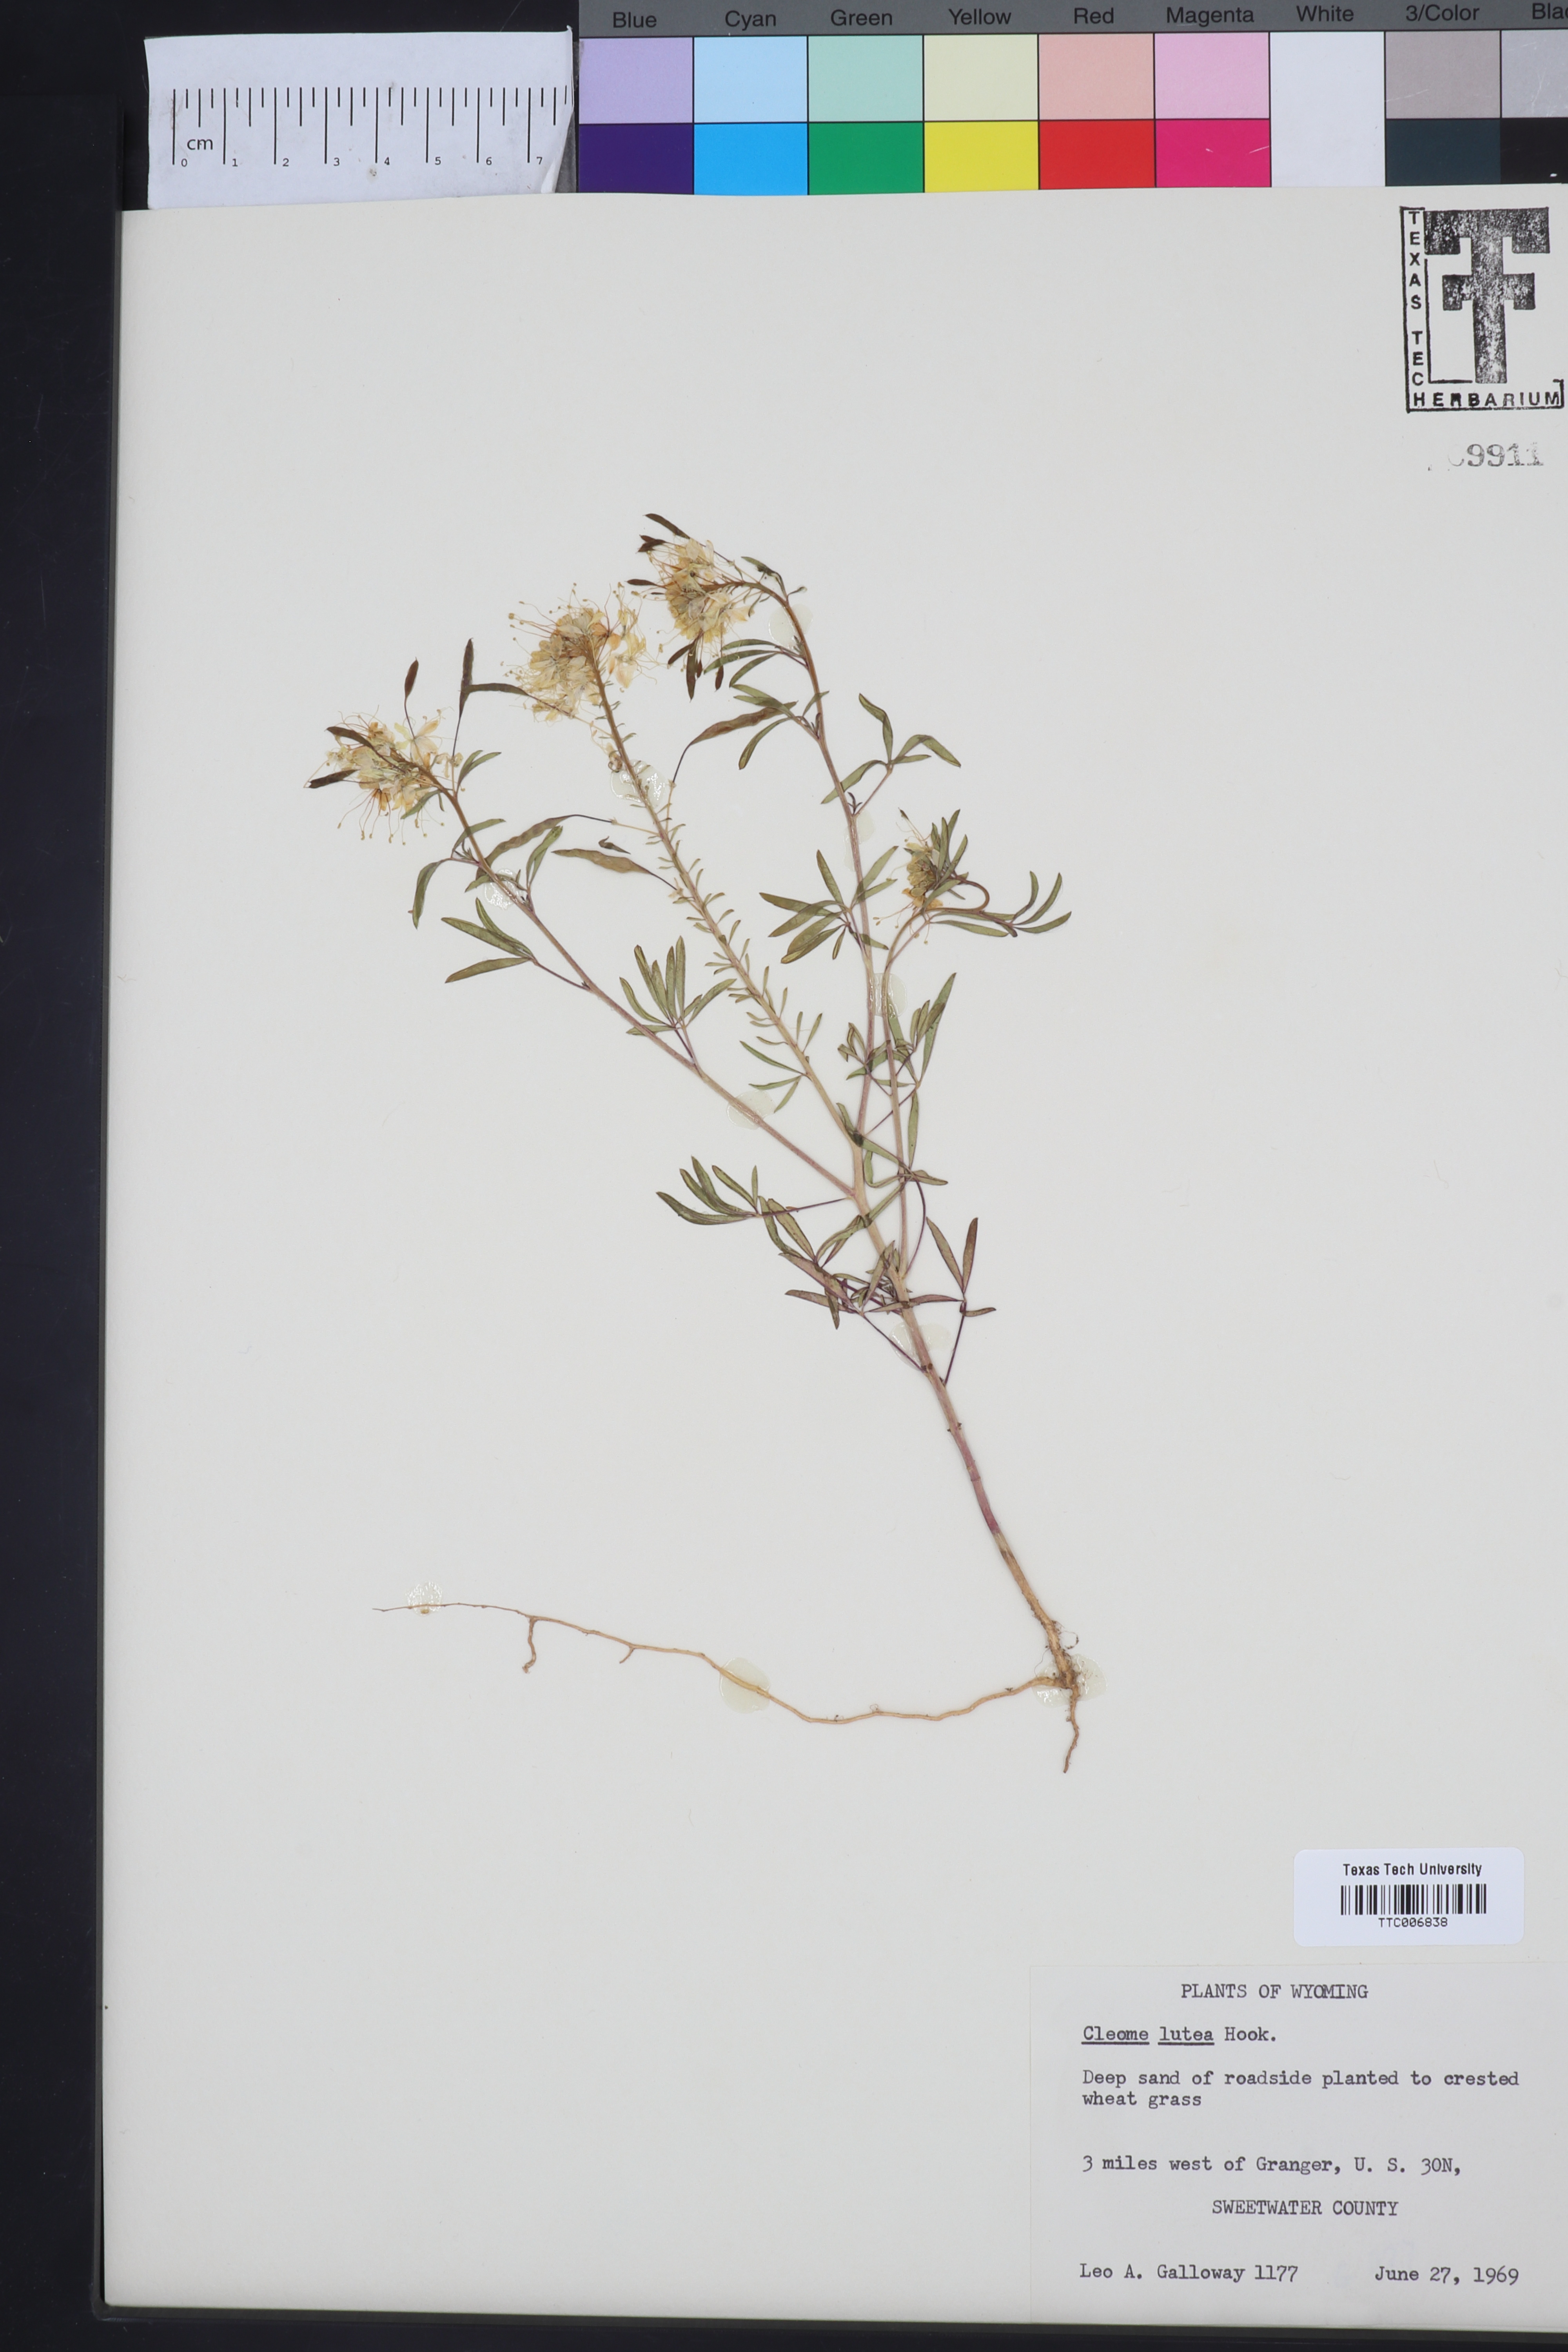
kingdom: Plantae
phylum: Tracheophyta
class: Magnoliopsida
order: Brassicales
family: Cleomaceae
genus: Cleomella
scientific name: Cleomella lutea
